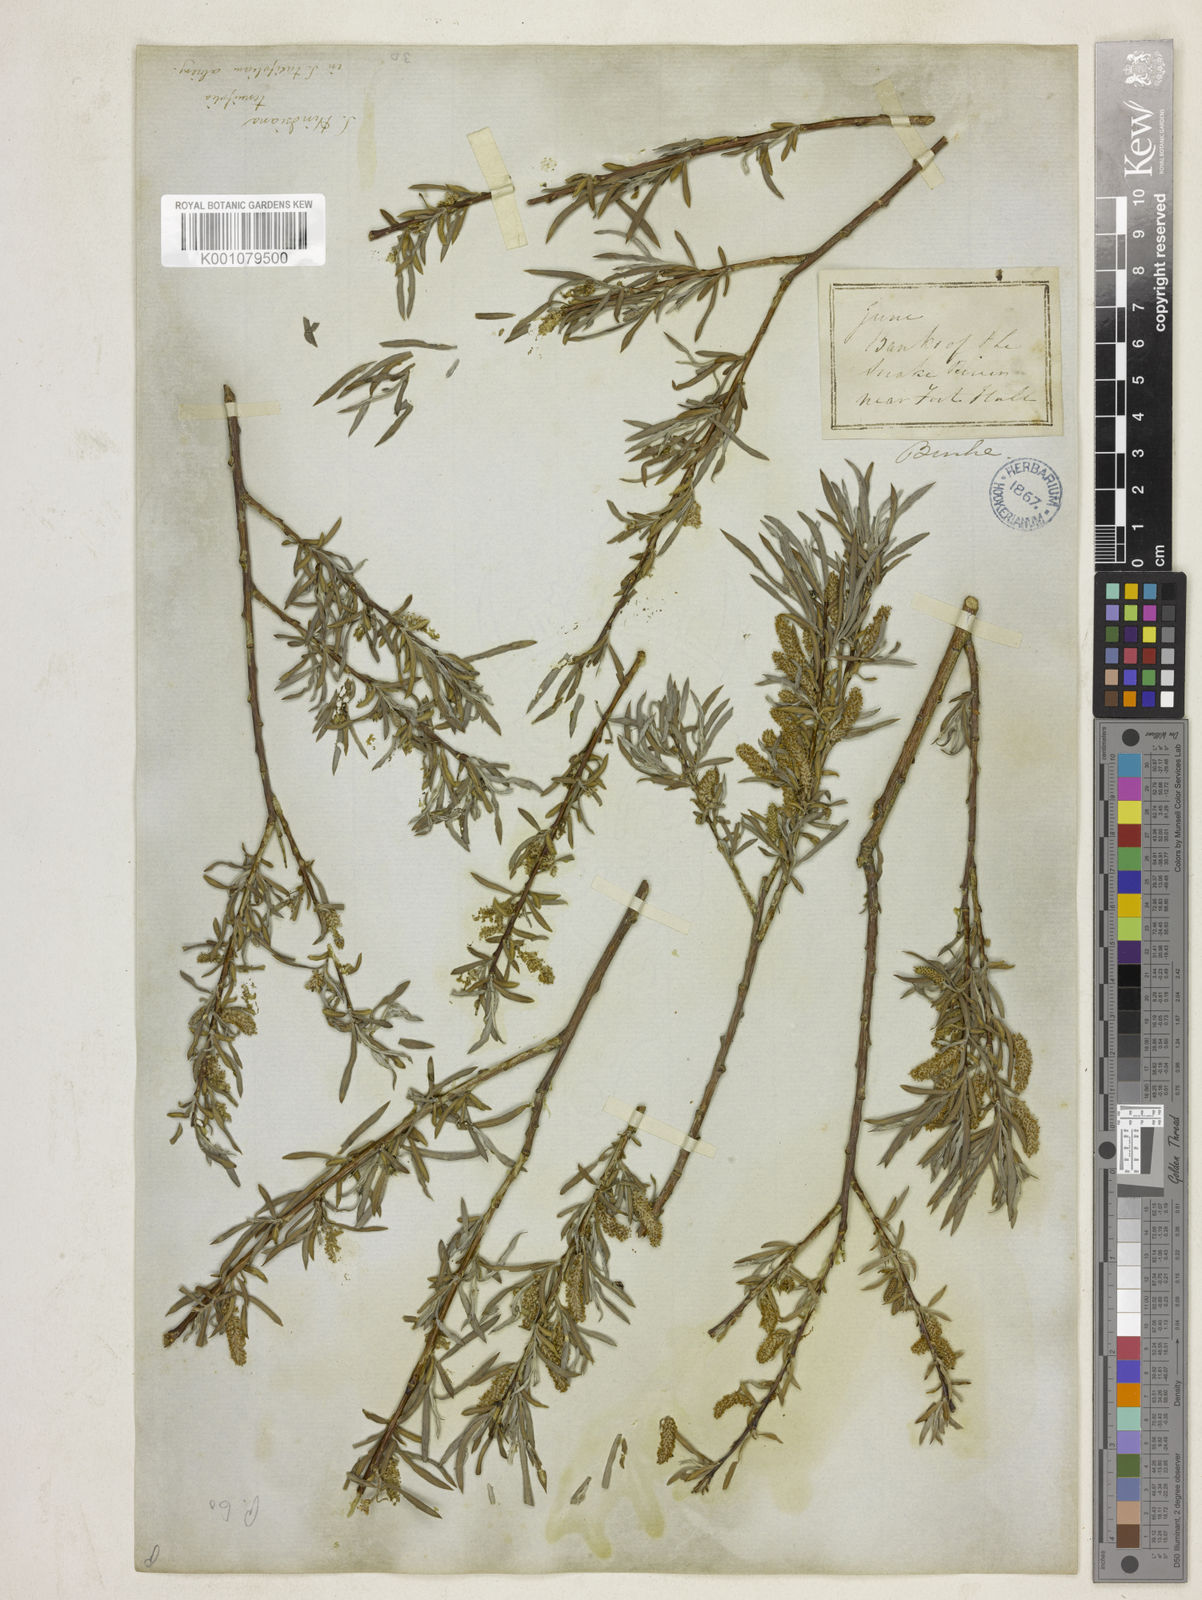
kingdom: Plantae
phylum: Tracheophyta
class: Magnoliopsida
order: Malpighiales
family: Salicaceae
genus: Salix
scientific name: Salix exigua
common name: Coyote willow
